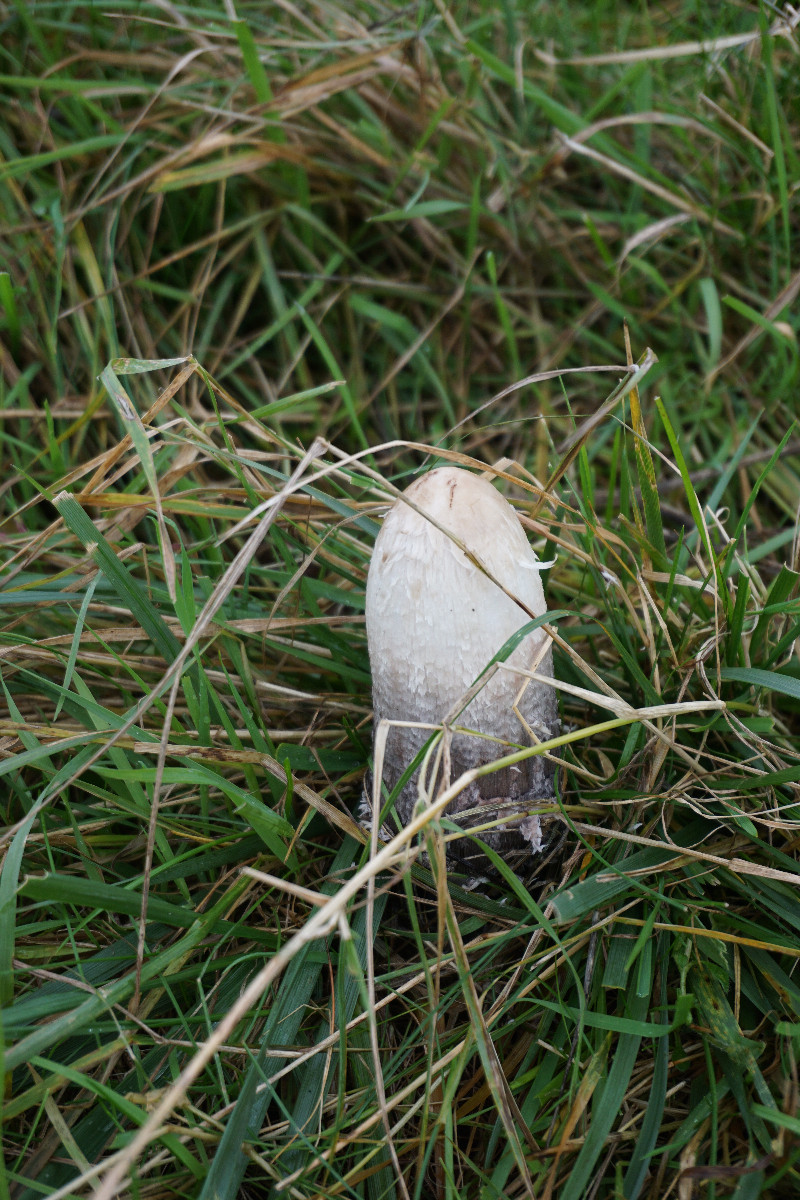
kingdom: Fungi
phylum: Basidiomycota
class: Agaricomycetes
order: Agaricales
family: Agaricaceae
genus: Coprinus
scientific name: Coprinus comatus
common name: stor parykhat
